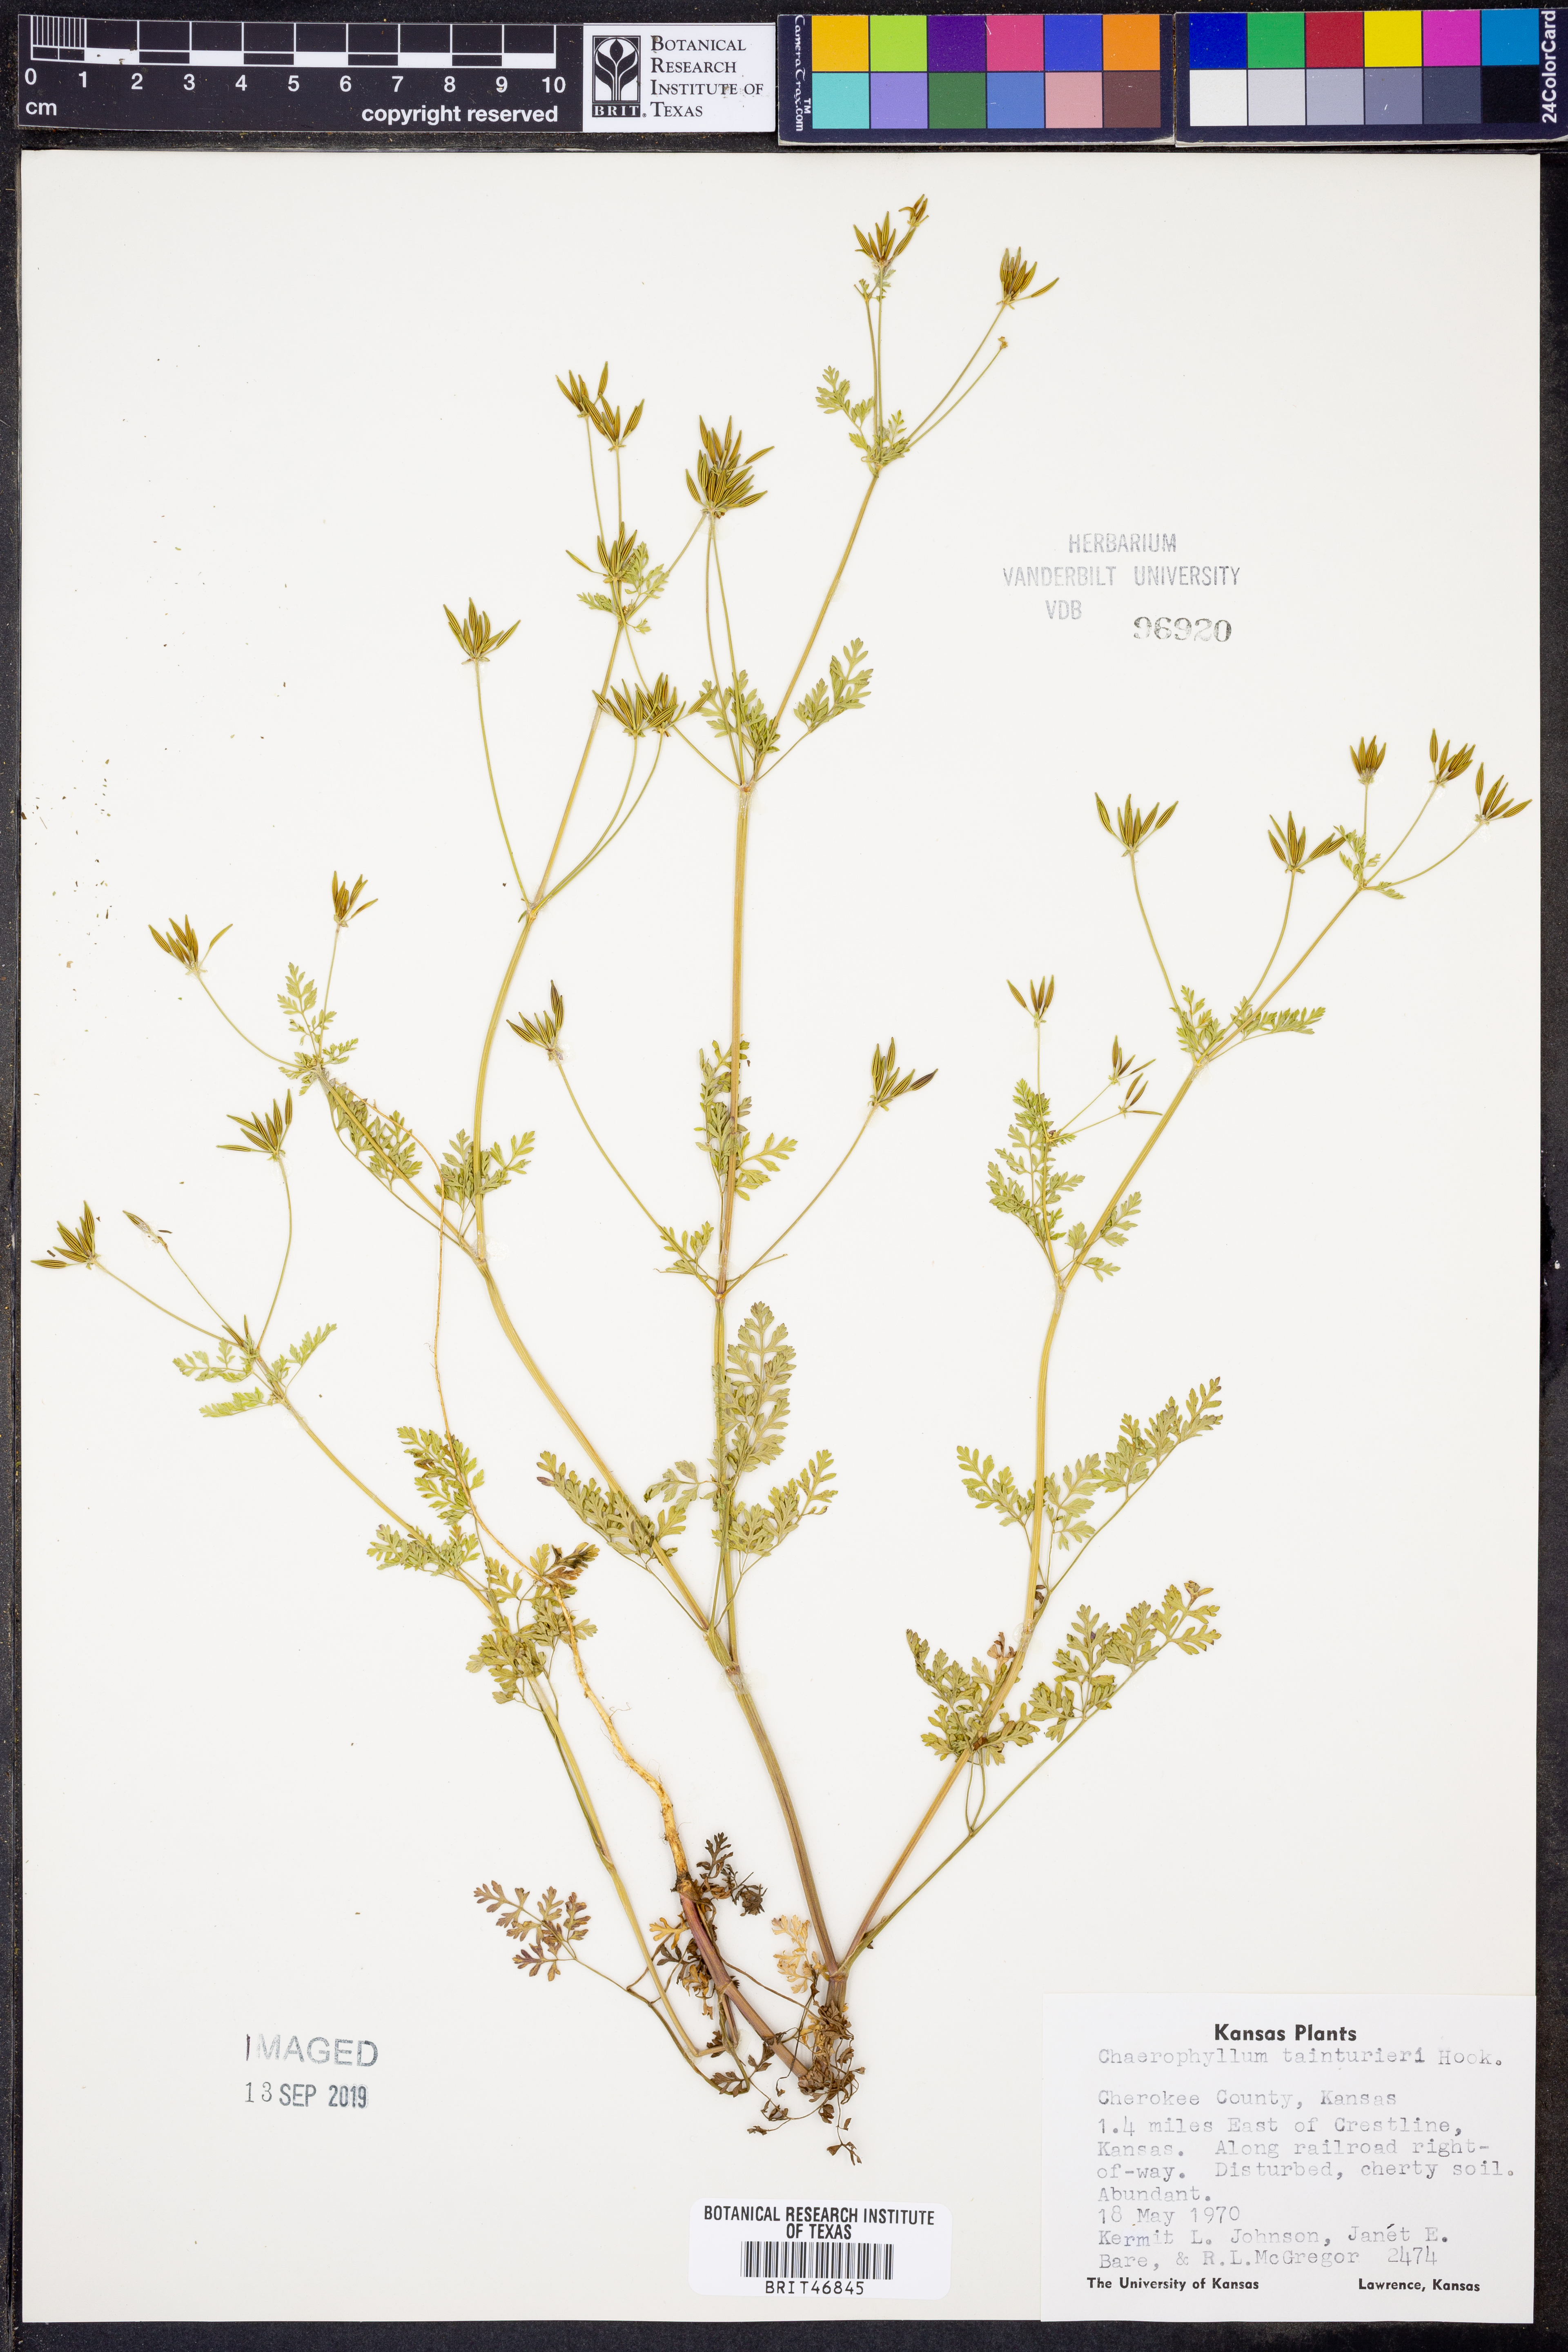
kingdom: Plantae
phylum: Tracheophyta
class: Magnoliopsida
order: Apiales
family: Apiaceae
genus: Chaerophyllum
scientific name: Chaerophyllum tainturieri
